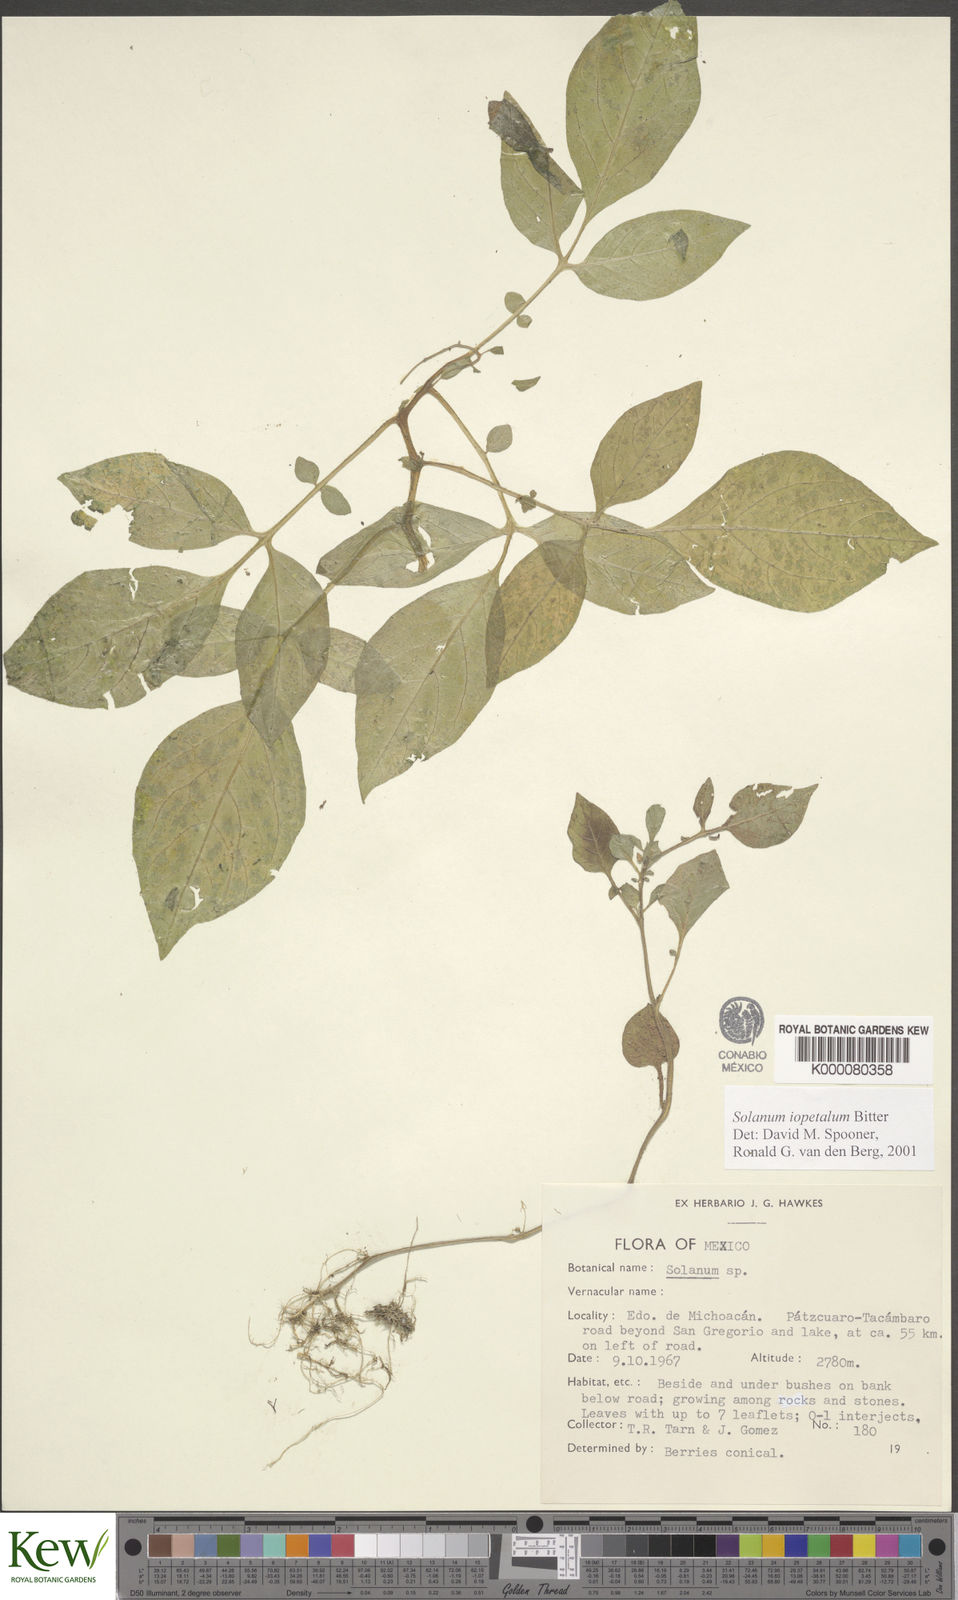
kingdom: Plantae
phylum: Tracheophyta
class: Magnoliopsida
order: Solanales
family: Solanaceae
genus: Solanum
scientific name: Solanum iopetalum
